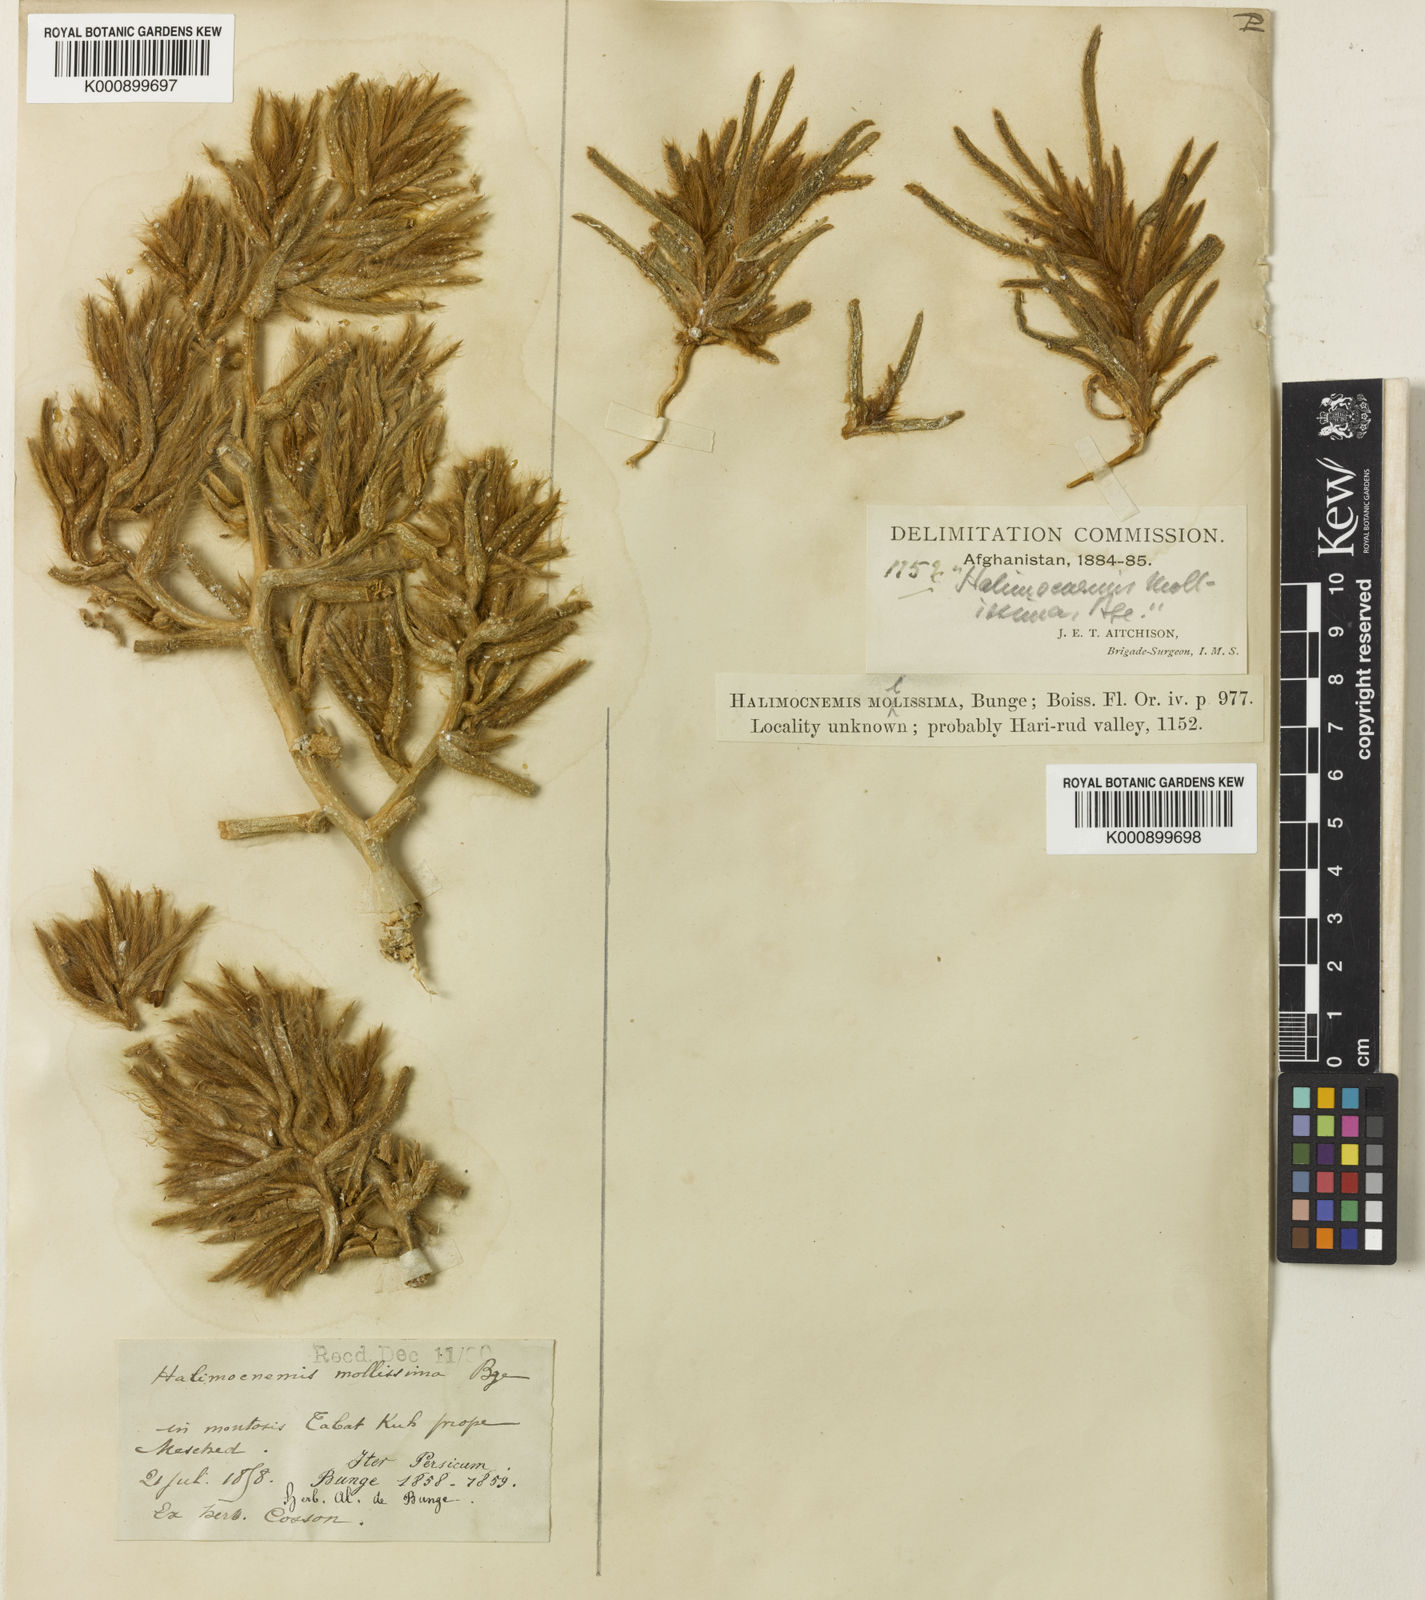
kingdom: Plantae
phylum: Tracheophyta
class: Magnoliopsida
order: Caryophyllales
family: Amaranthaceae
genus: Halimocnemis
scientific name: Halimocnemis mollissima
